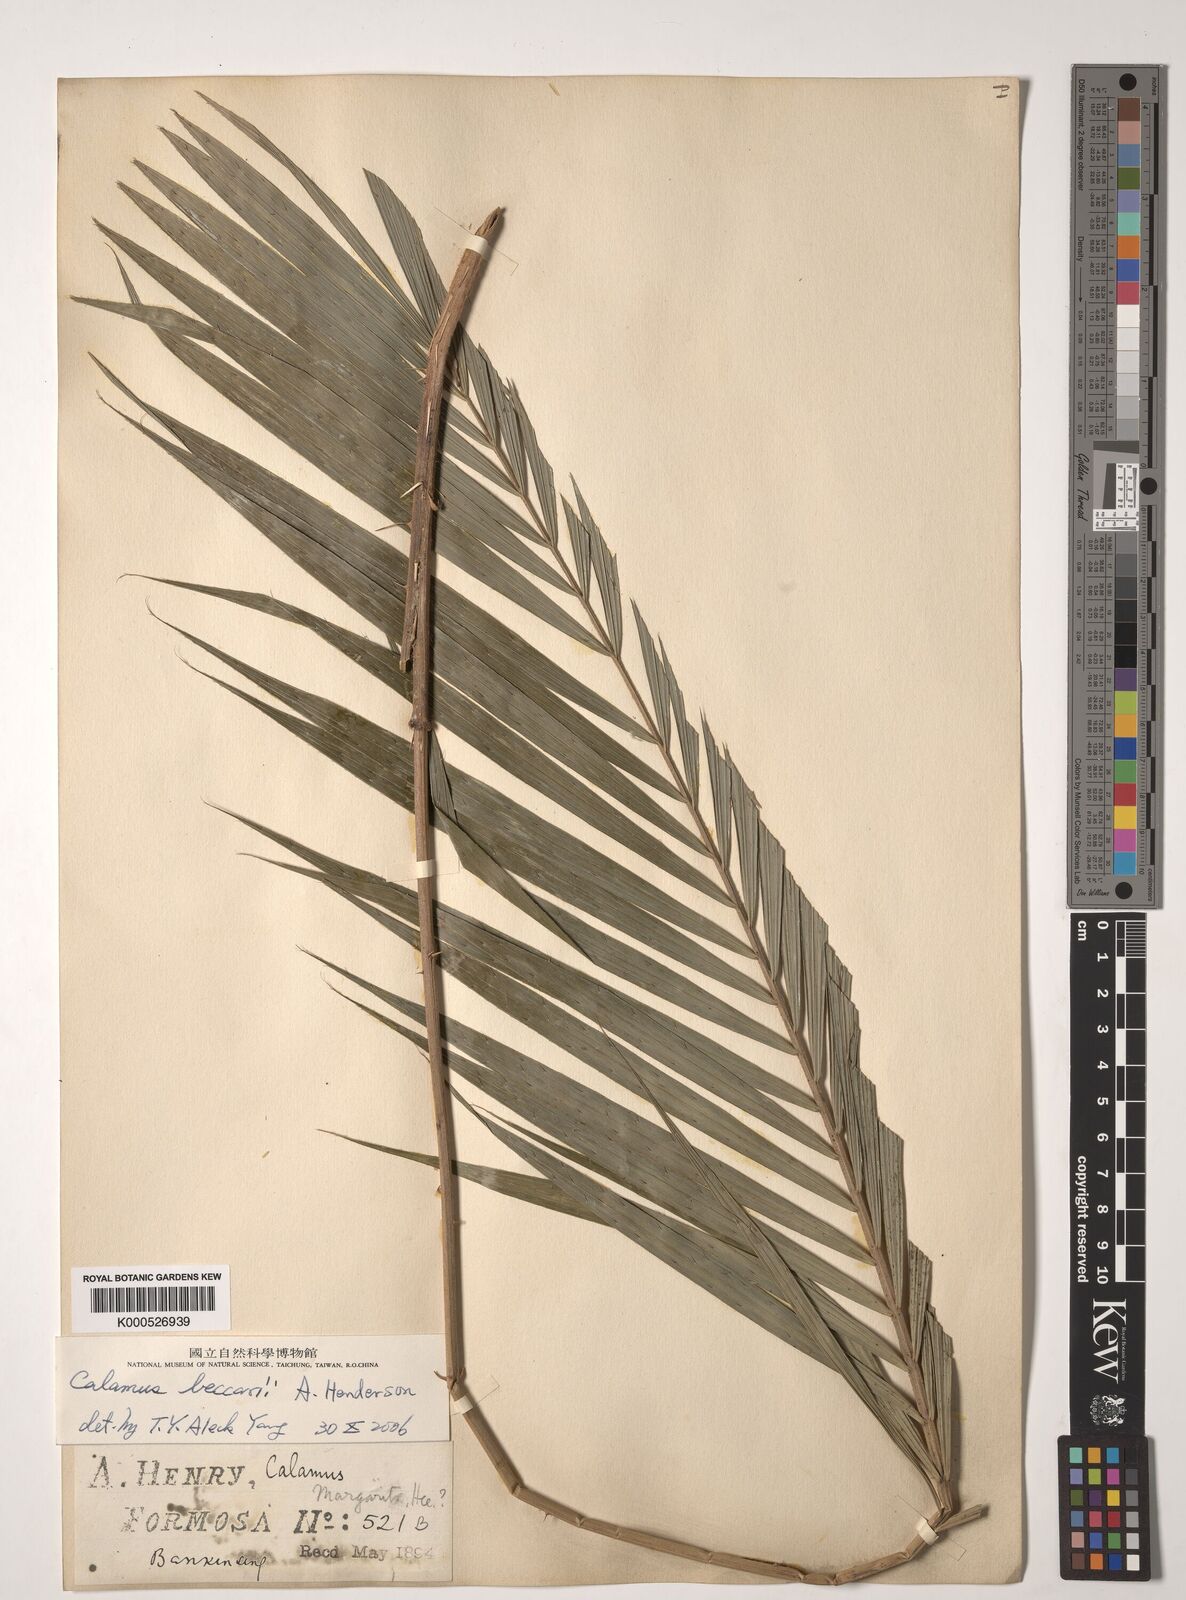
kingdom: Plantae
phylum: Tracheophyta
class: Liliopsida
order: Arecales
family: Arecaceae
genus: Calamus
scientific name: Calamus beccarii
